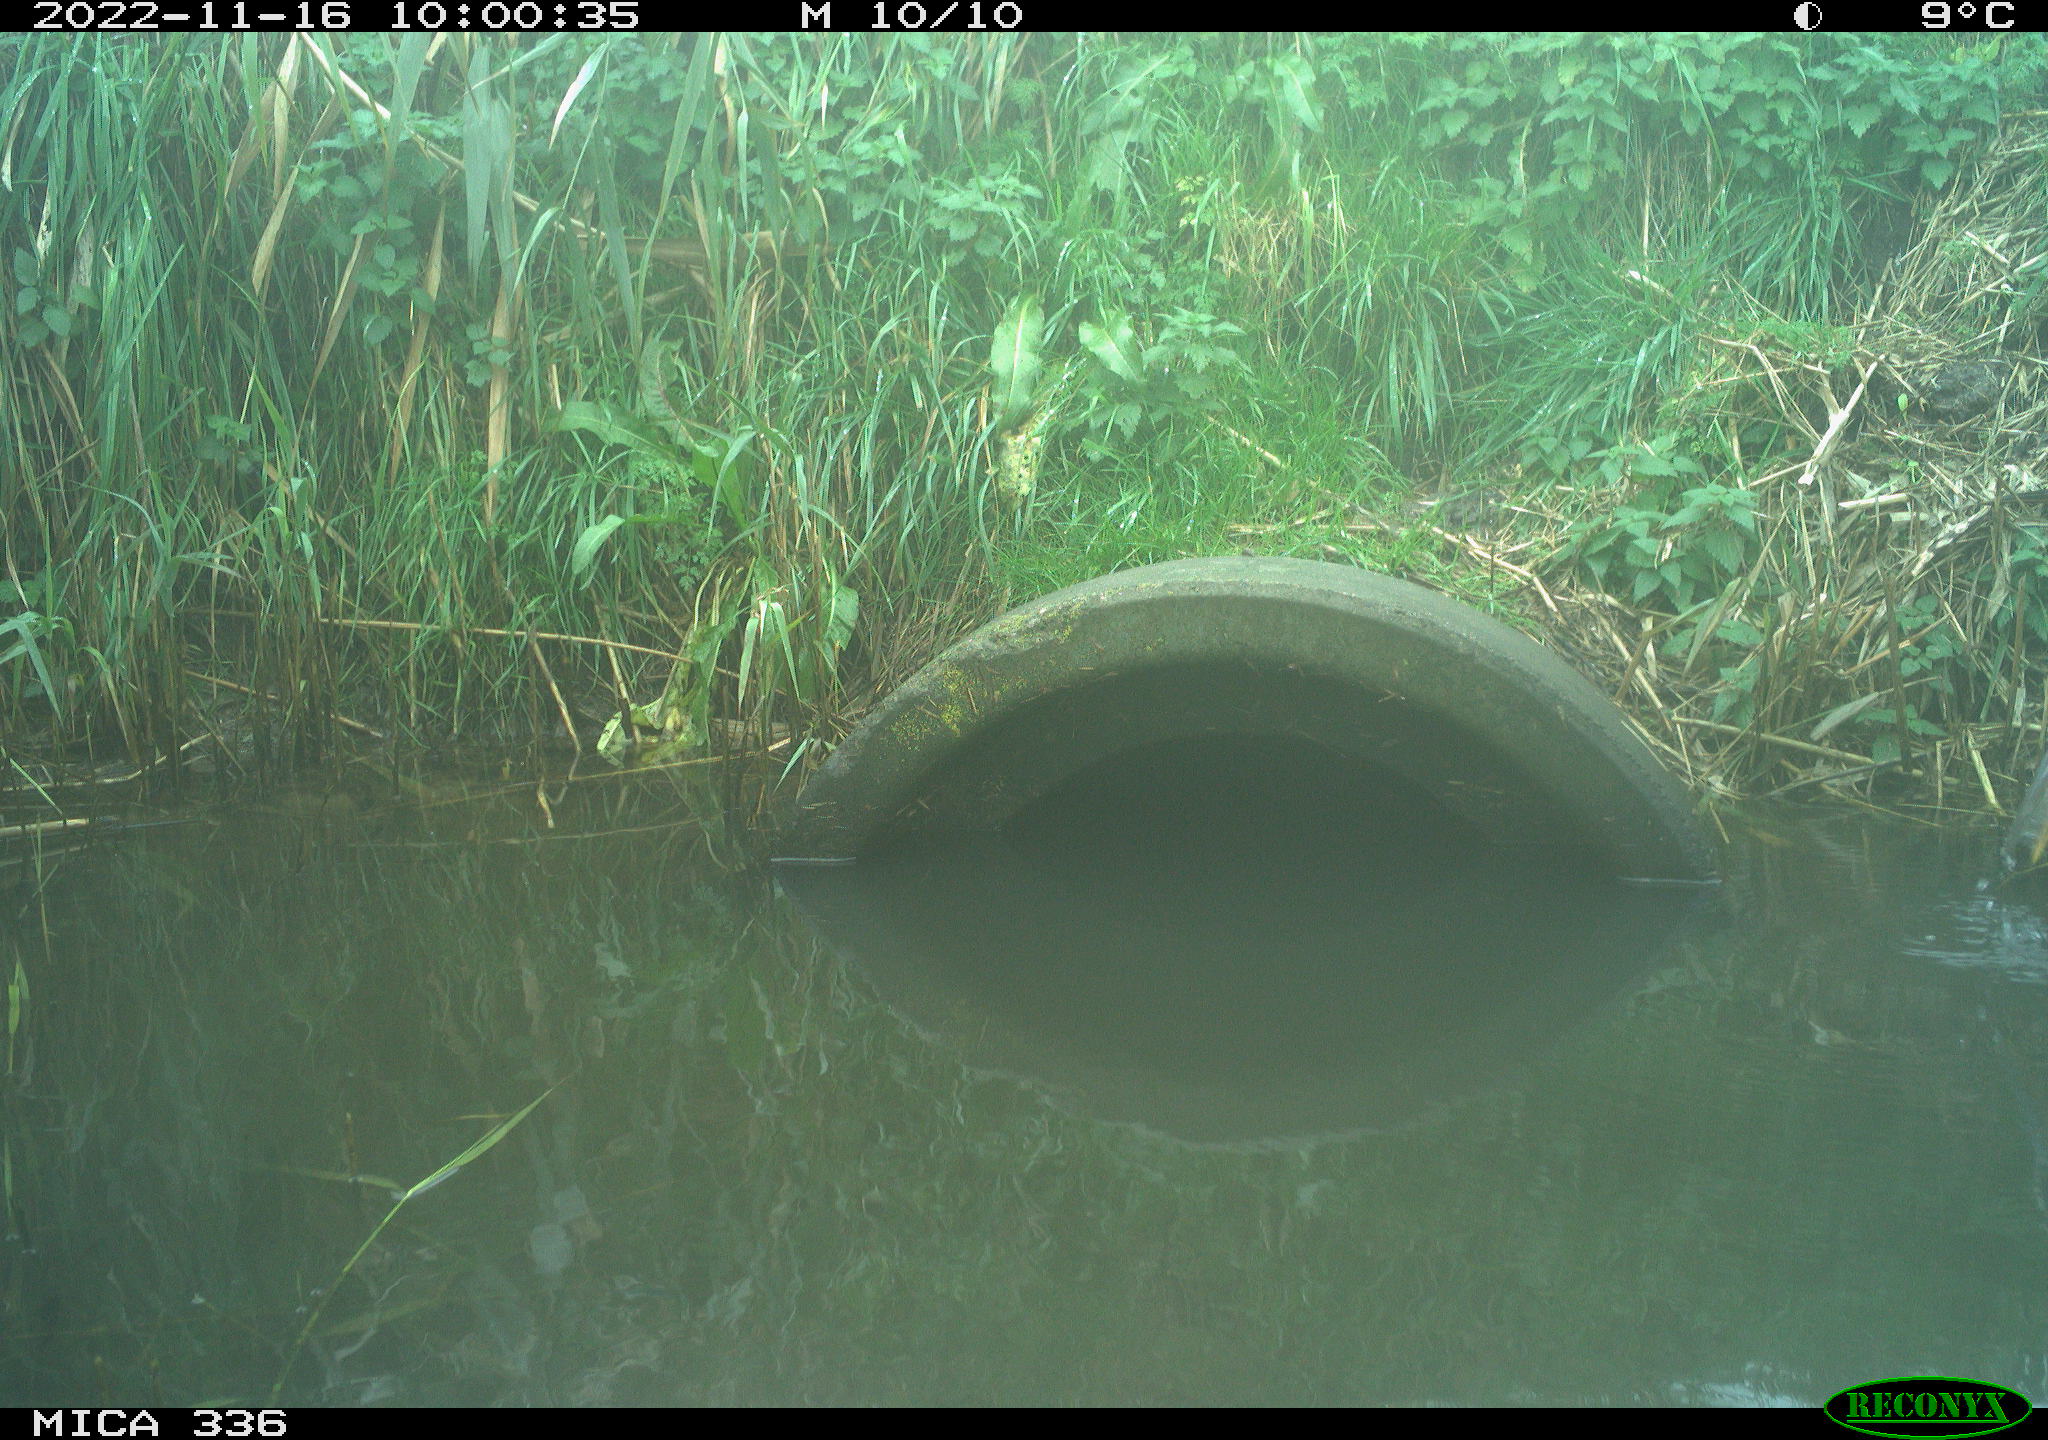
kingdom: Animalia
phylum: Chordata
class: Aves
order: Pelecaniformes
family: Ardeidae
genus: Ardea
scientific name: Ardea cinerea
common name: Grey heron
